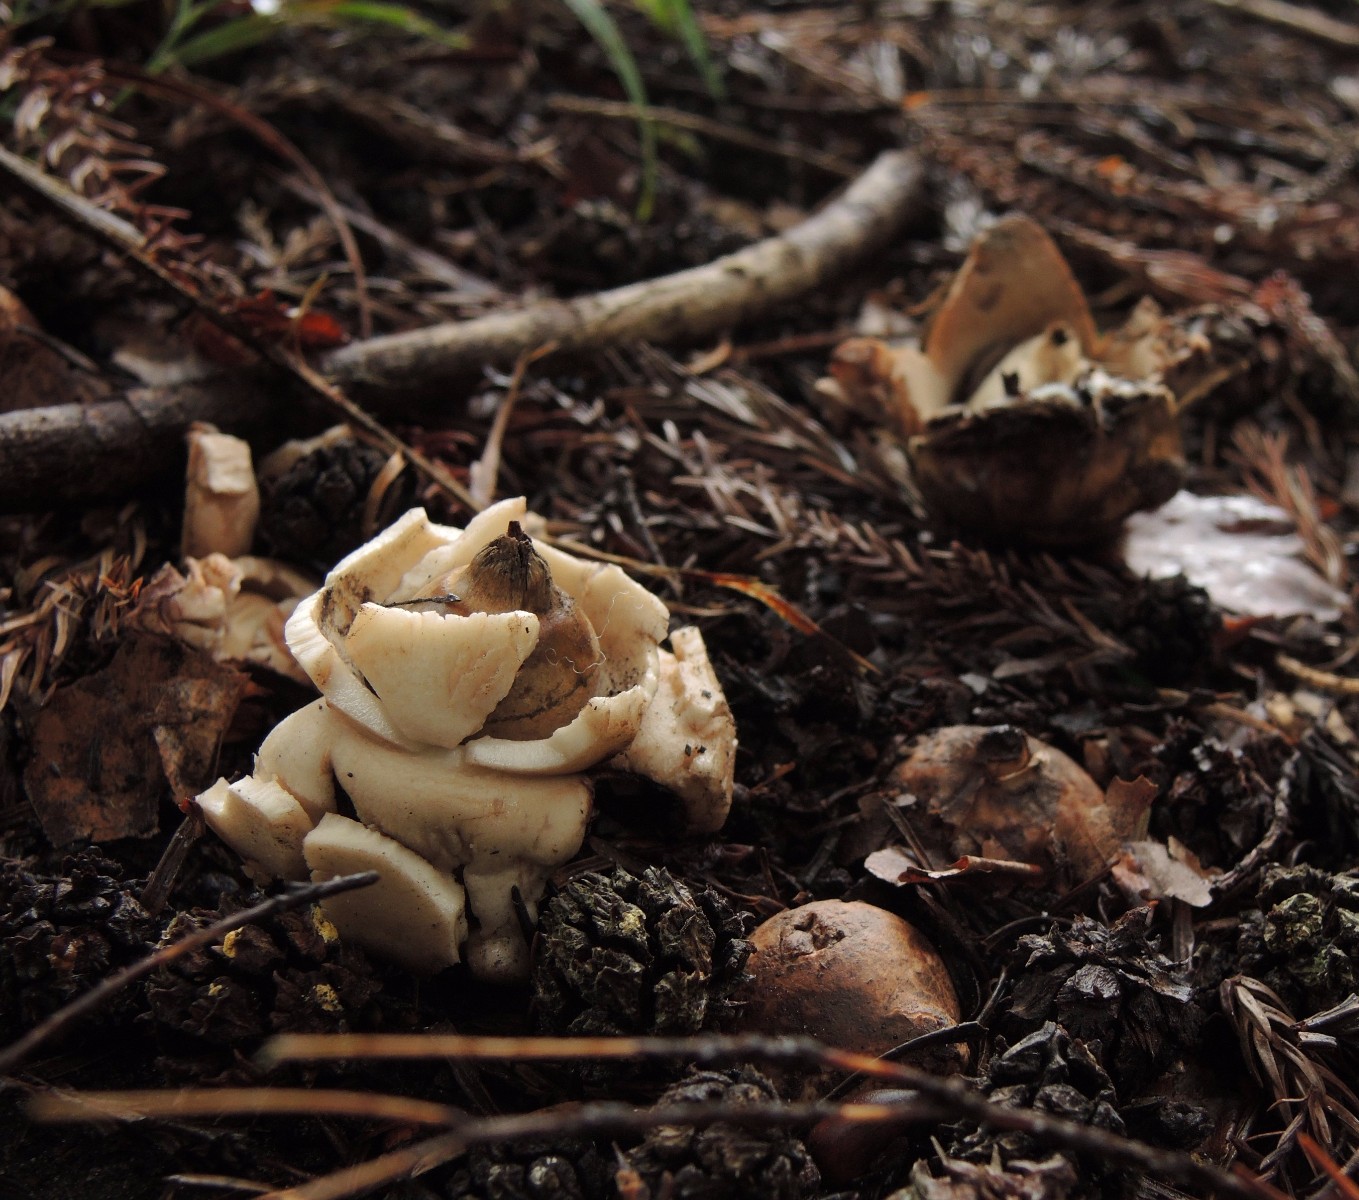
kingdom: Fungi
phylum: Basidiomycota
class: Agaricomycetes
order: Geastrales
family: Geastraceae
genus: Geastrum
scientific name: Geastrum michelianum
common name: kødet stjernebold
